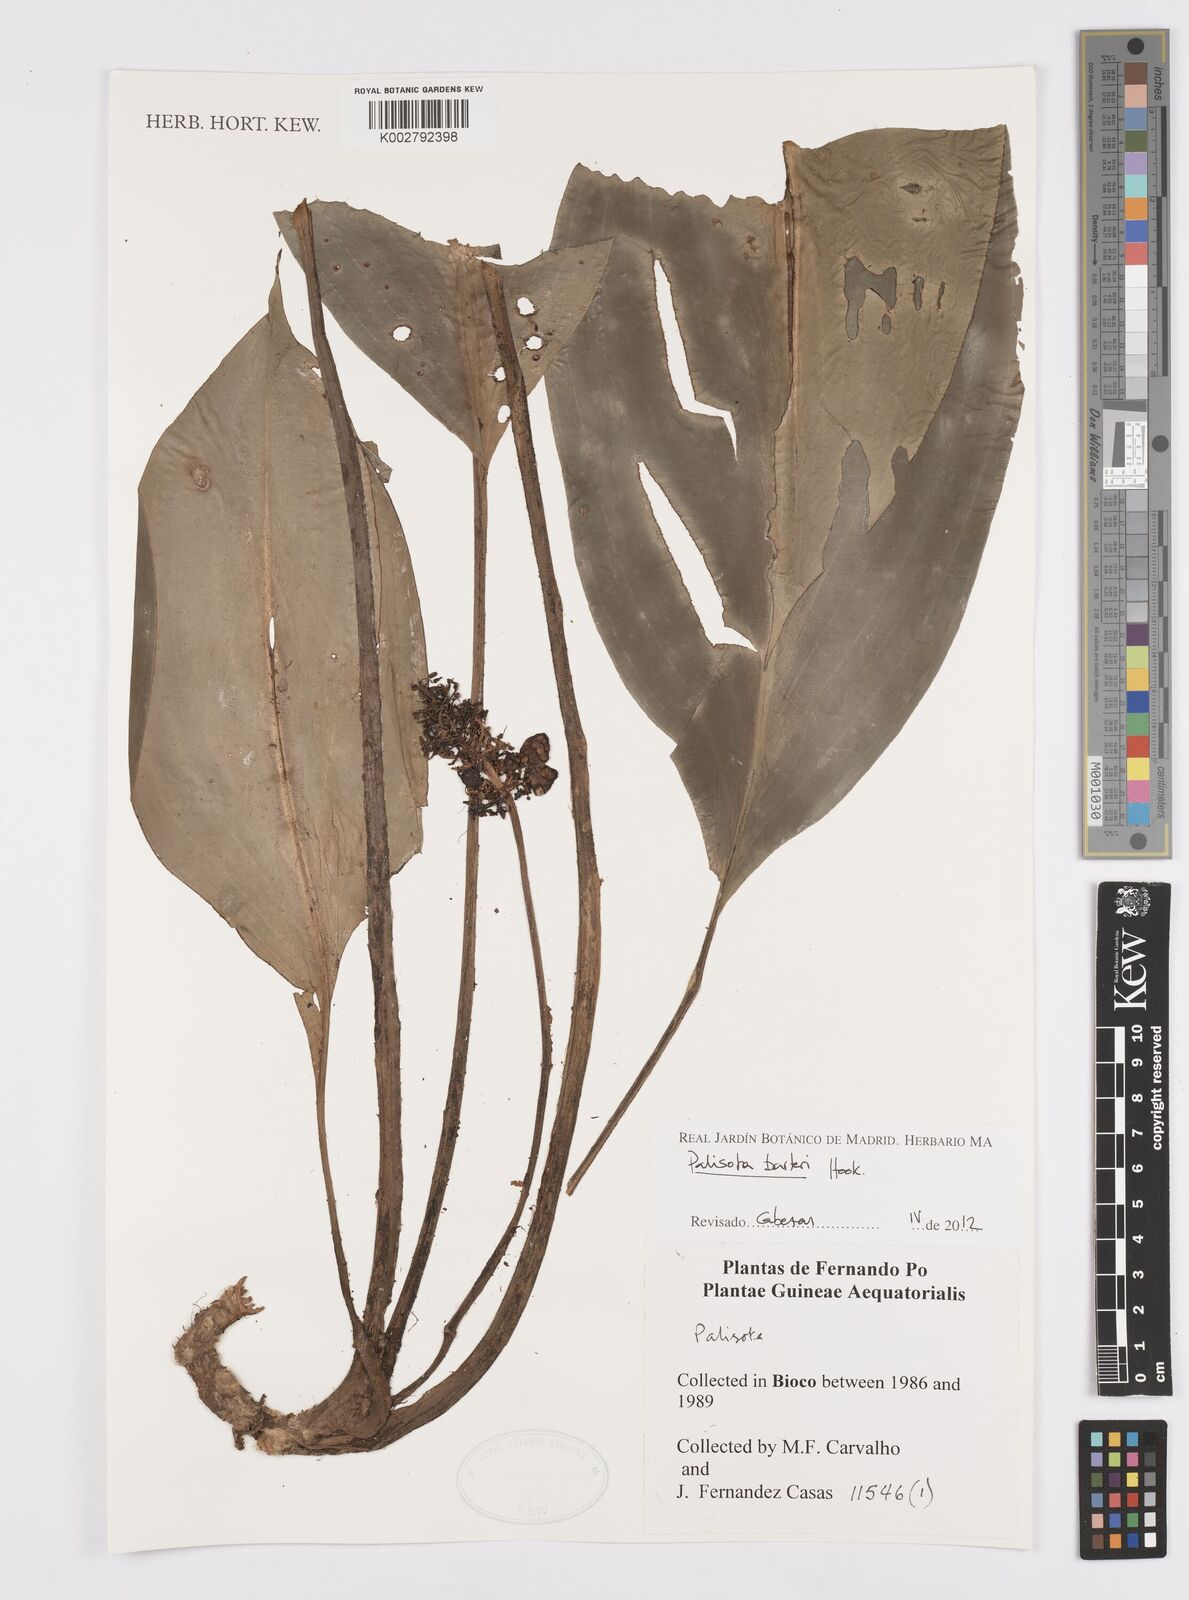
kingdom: Plantae
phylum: Tracheophyta
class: Liliopsida
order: Commelinales
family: Commelinaceae
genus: Palisota
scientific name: Palisota barteri
